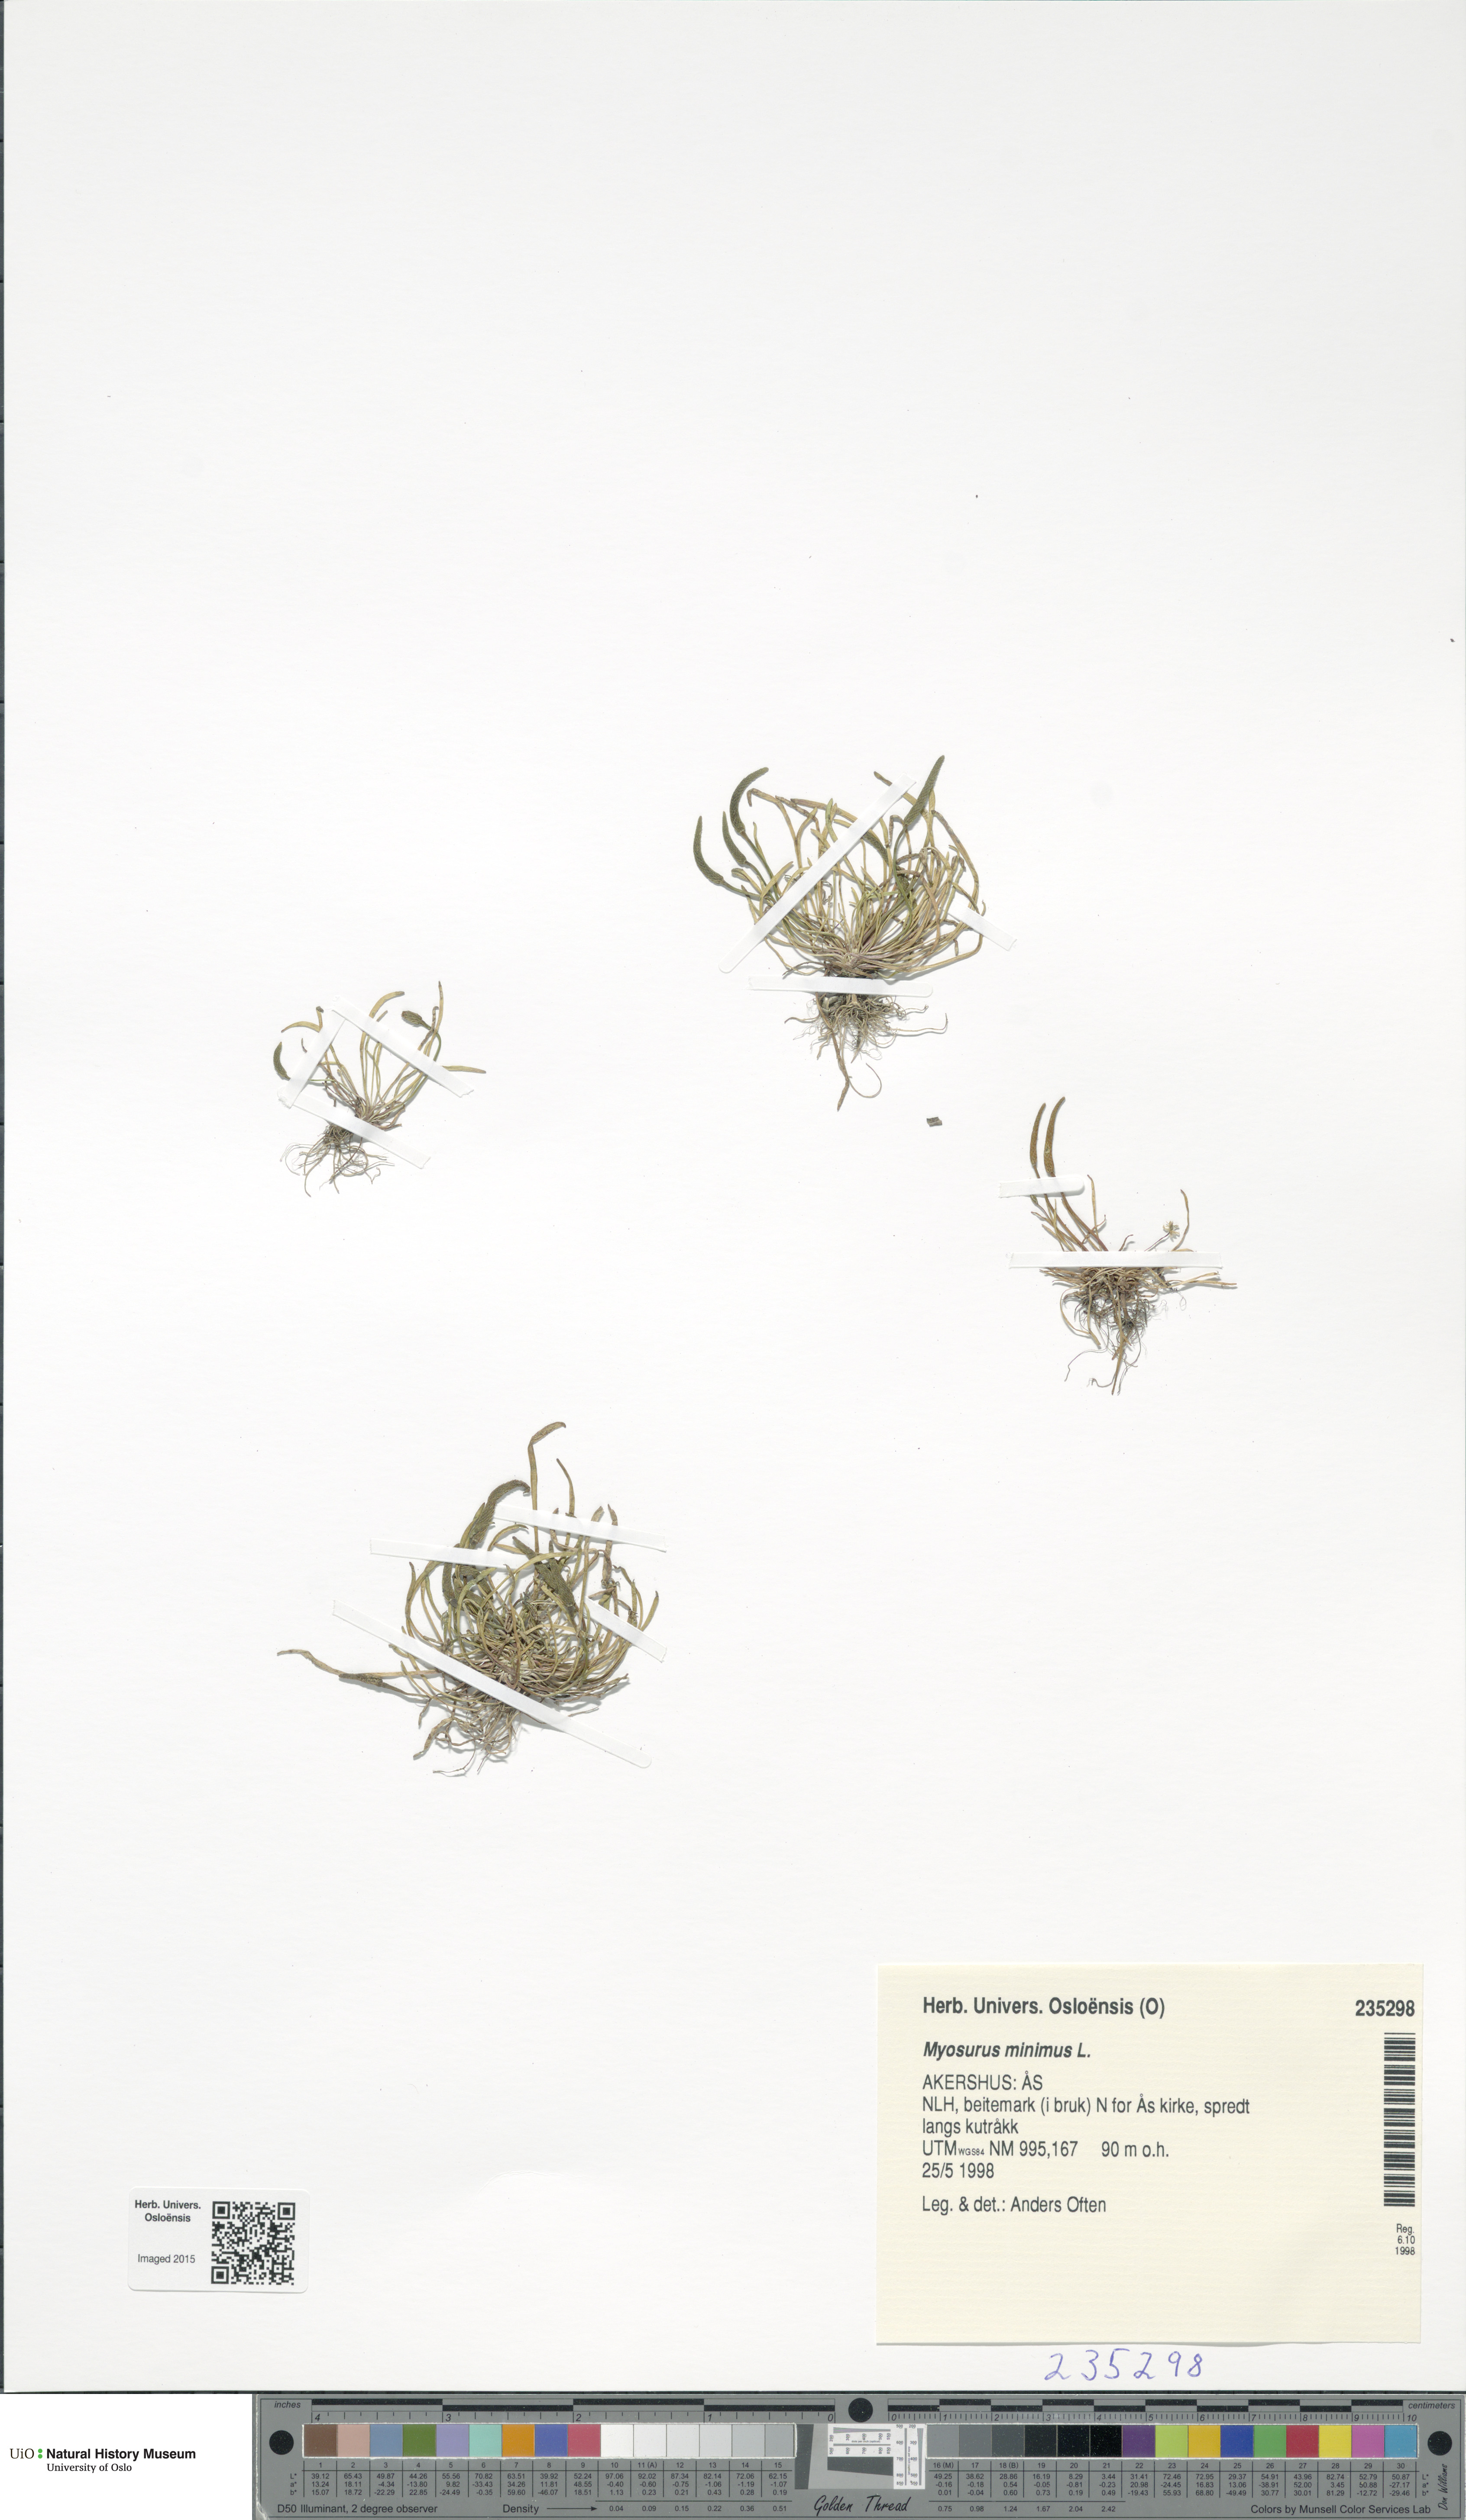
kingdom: Plantae
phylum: Tracheophyta
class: Magnoliopsida
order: Ranunculales
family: Ranunculaceae
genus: Myosurus
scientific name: Myosurus minimus
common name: Mousetail
